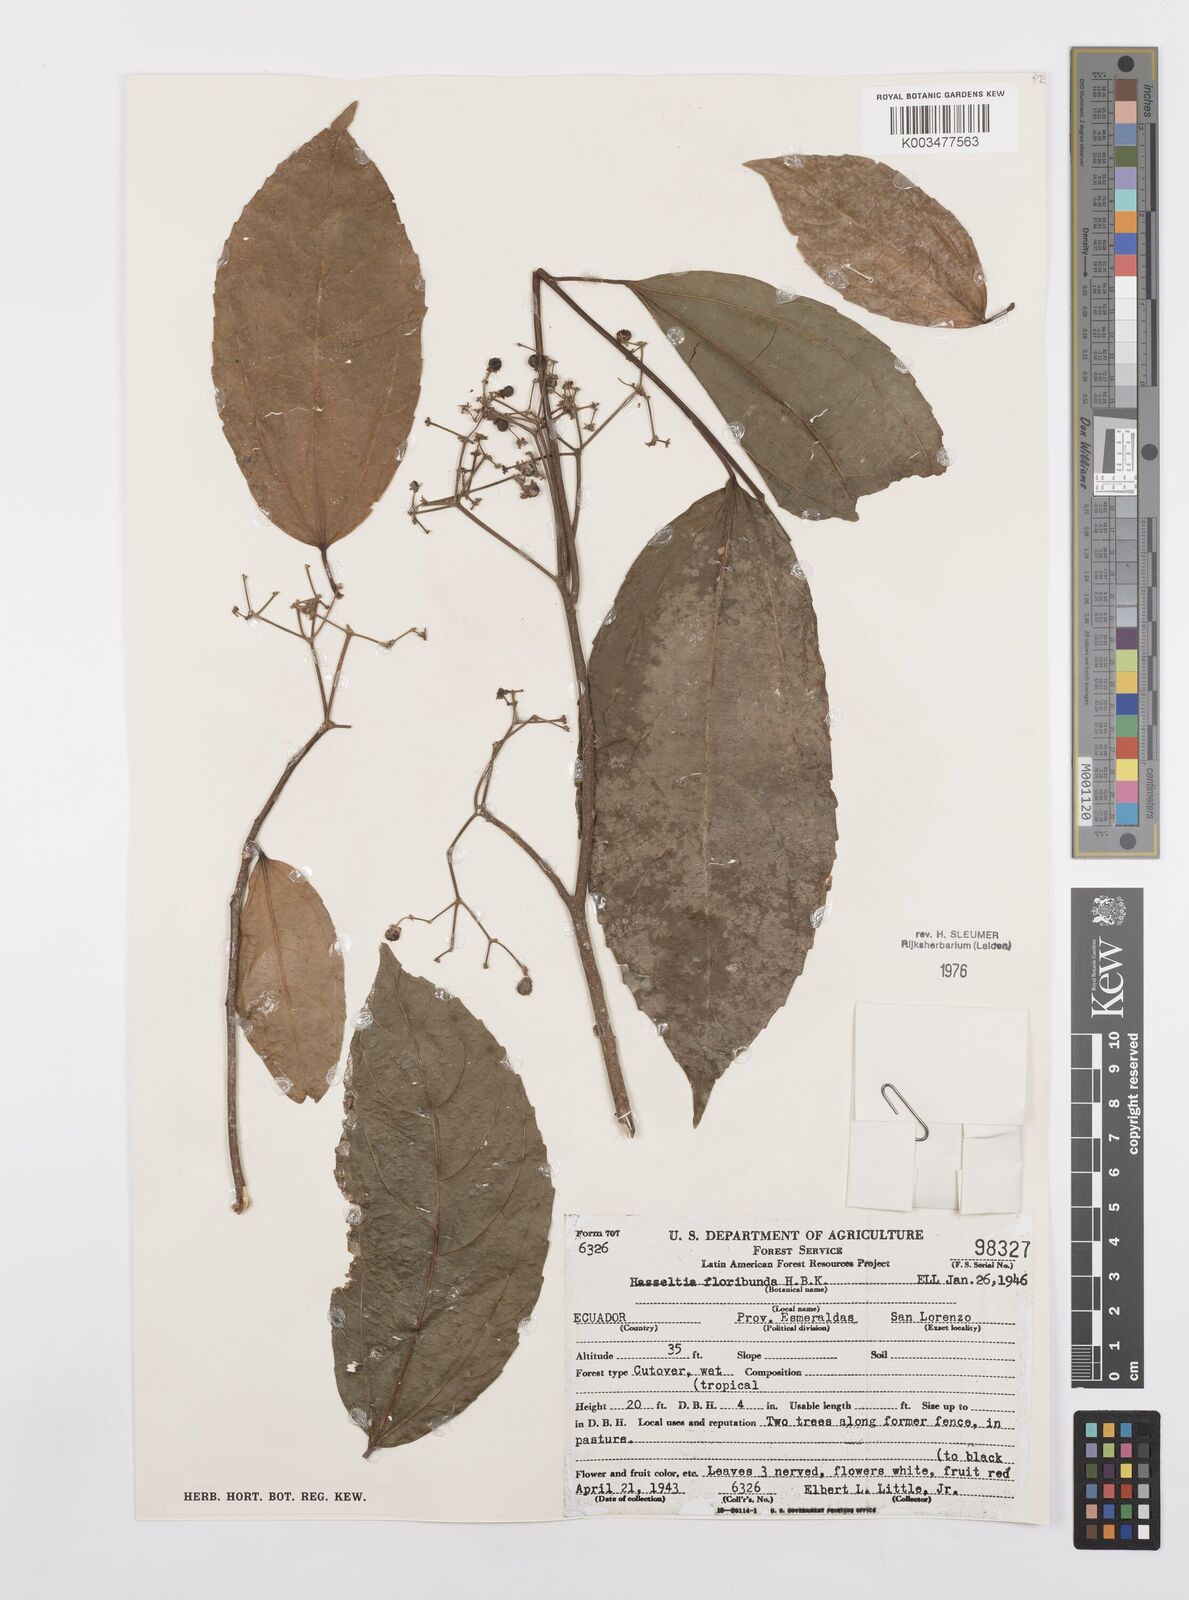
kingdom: Plantae
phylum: Tracheophyta
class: Magnoliopsida
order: Malpighiales
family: Salicaceae
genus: Hasseltia
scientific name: Hasseltia floribunda
